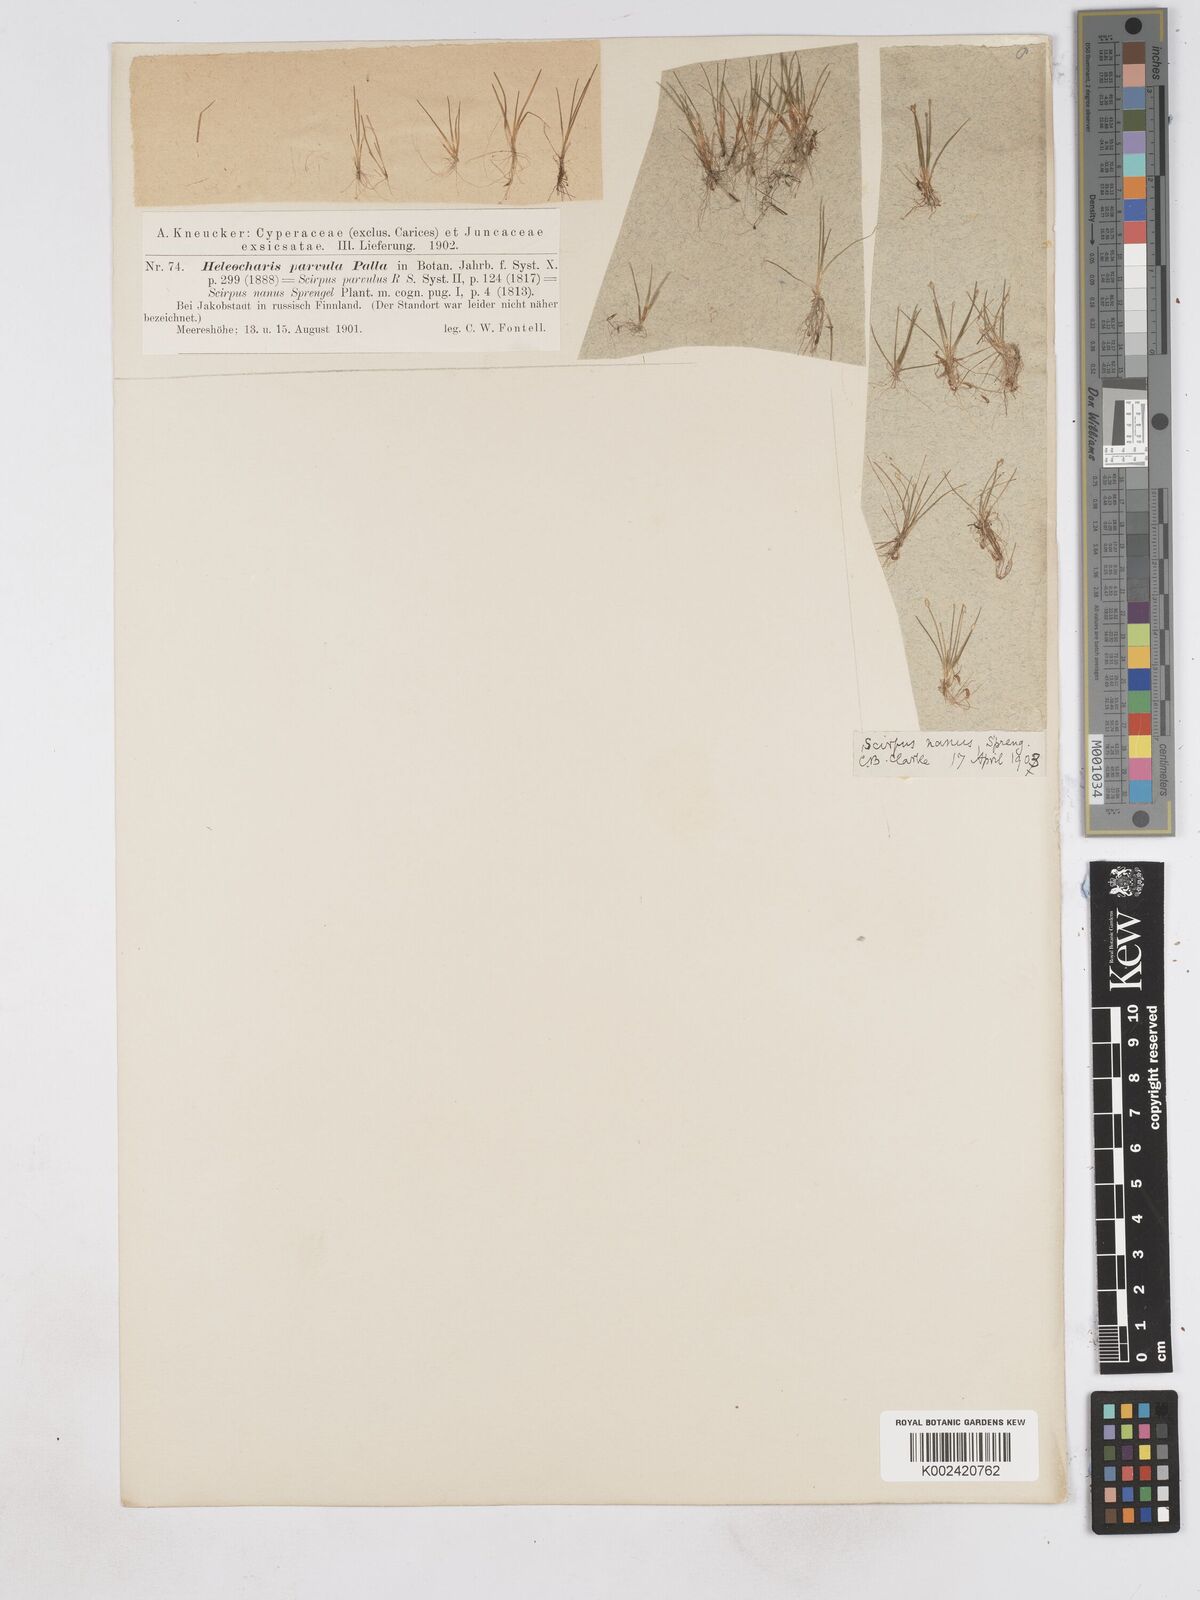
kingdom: Plantae
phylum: Tracheophyta
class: Liliopsida
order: Poales
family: Cyperaceae
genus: Eleocharis
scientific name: Eleocharis parvula
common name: Dwarf spike-rush
